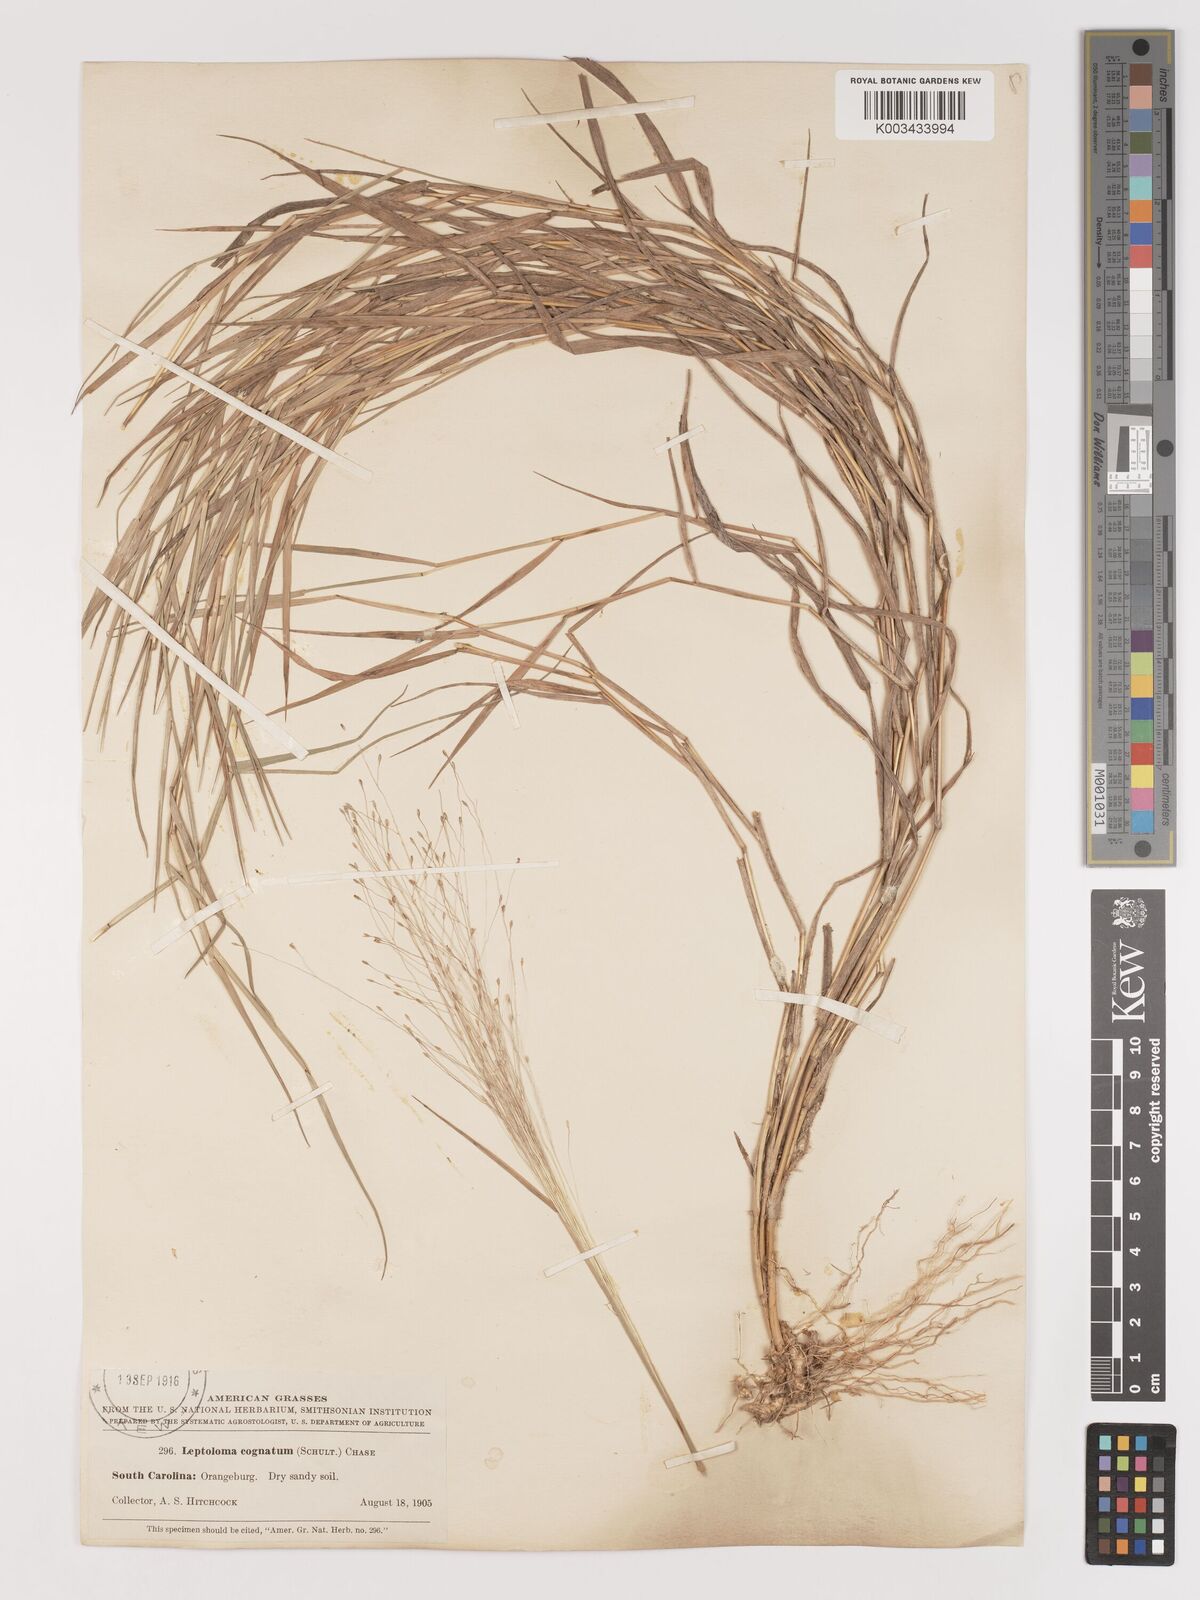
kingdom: Plantae
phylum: Tracheophyta
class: Liliopsida
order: Poales
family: Poaceae
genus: Digitaria
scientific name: Digitaria
